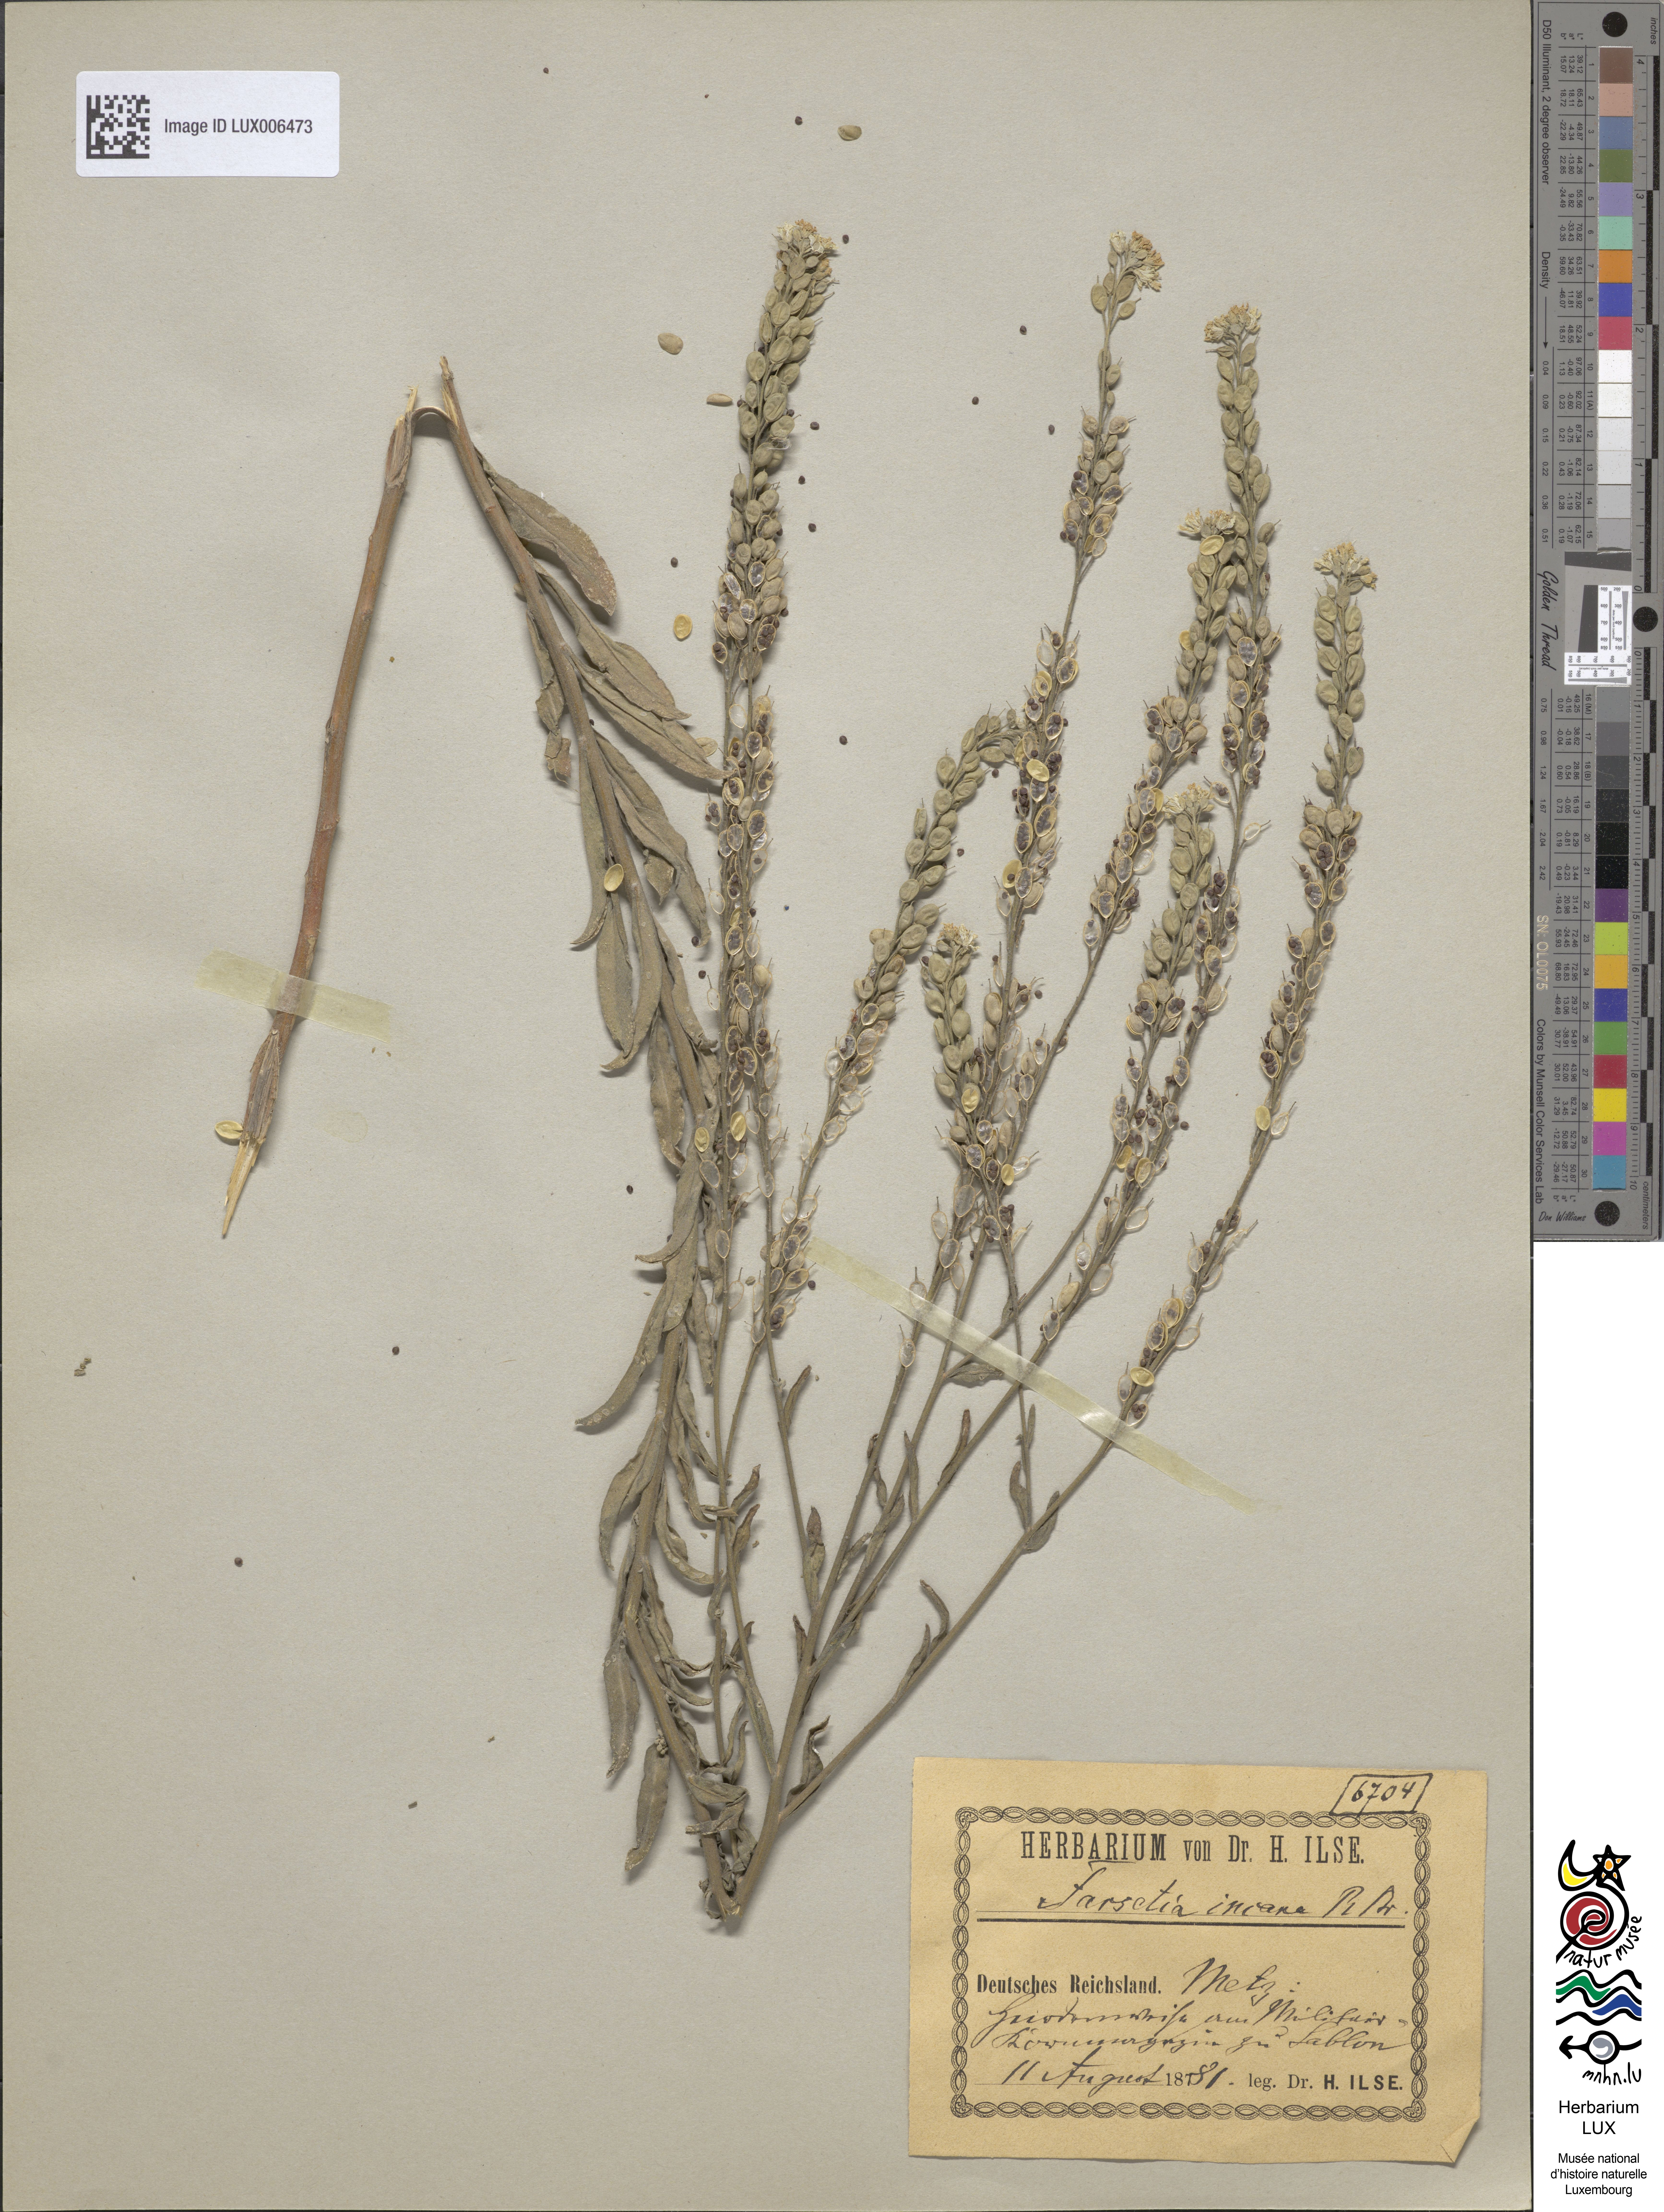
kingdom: Plantae
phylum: Tracheophyta
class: Magnoliopsida
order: Brassicales
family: Brassicaceae
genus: Berteroa
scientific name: Berteroa incana
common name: Hoary alison
